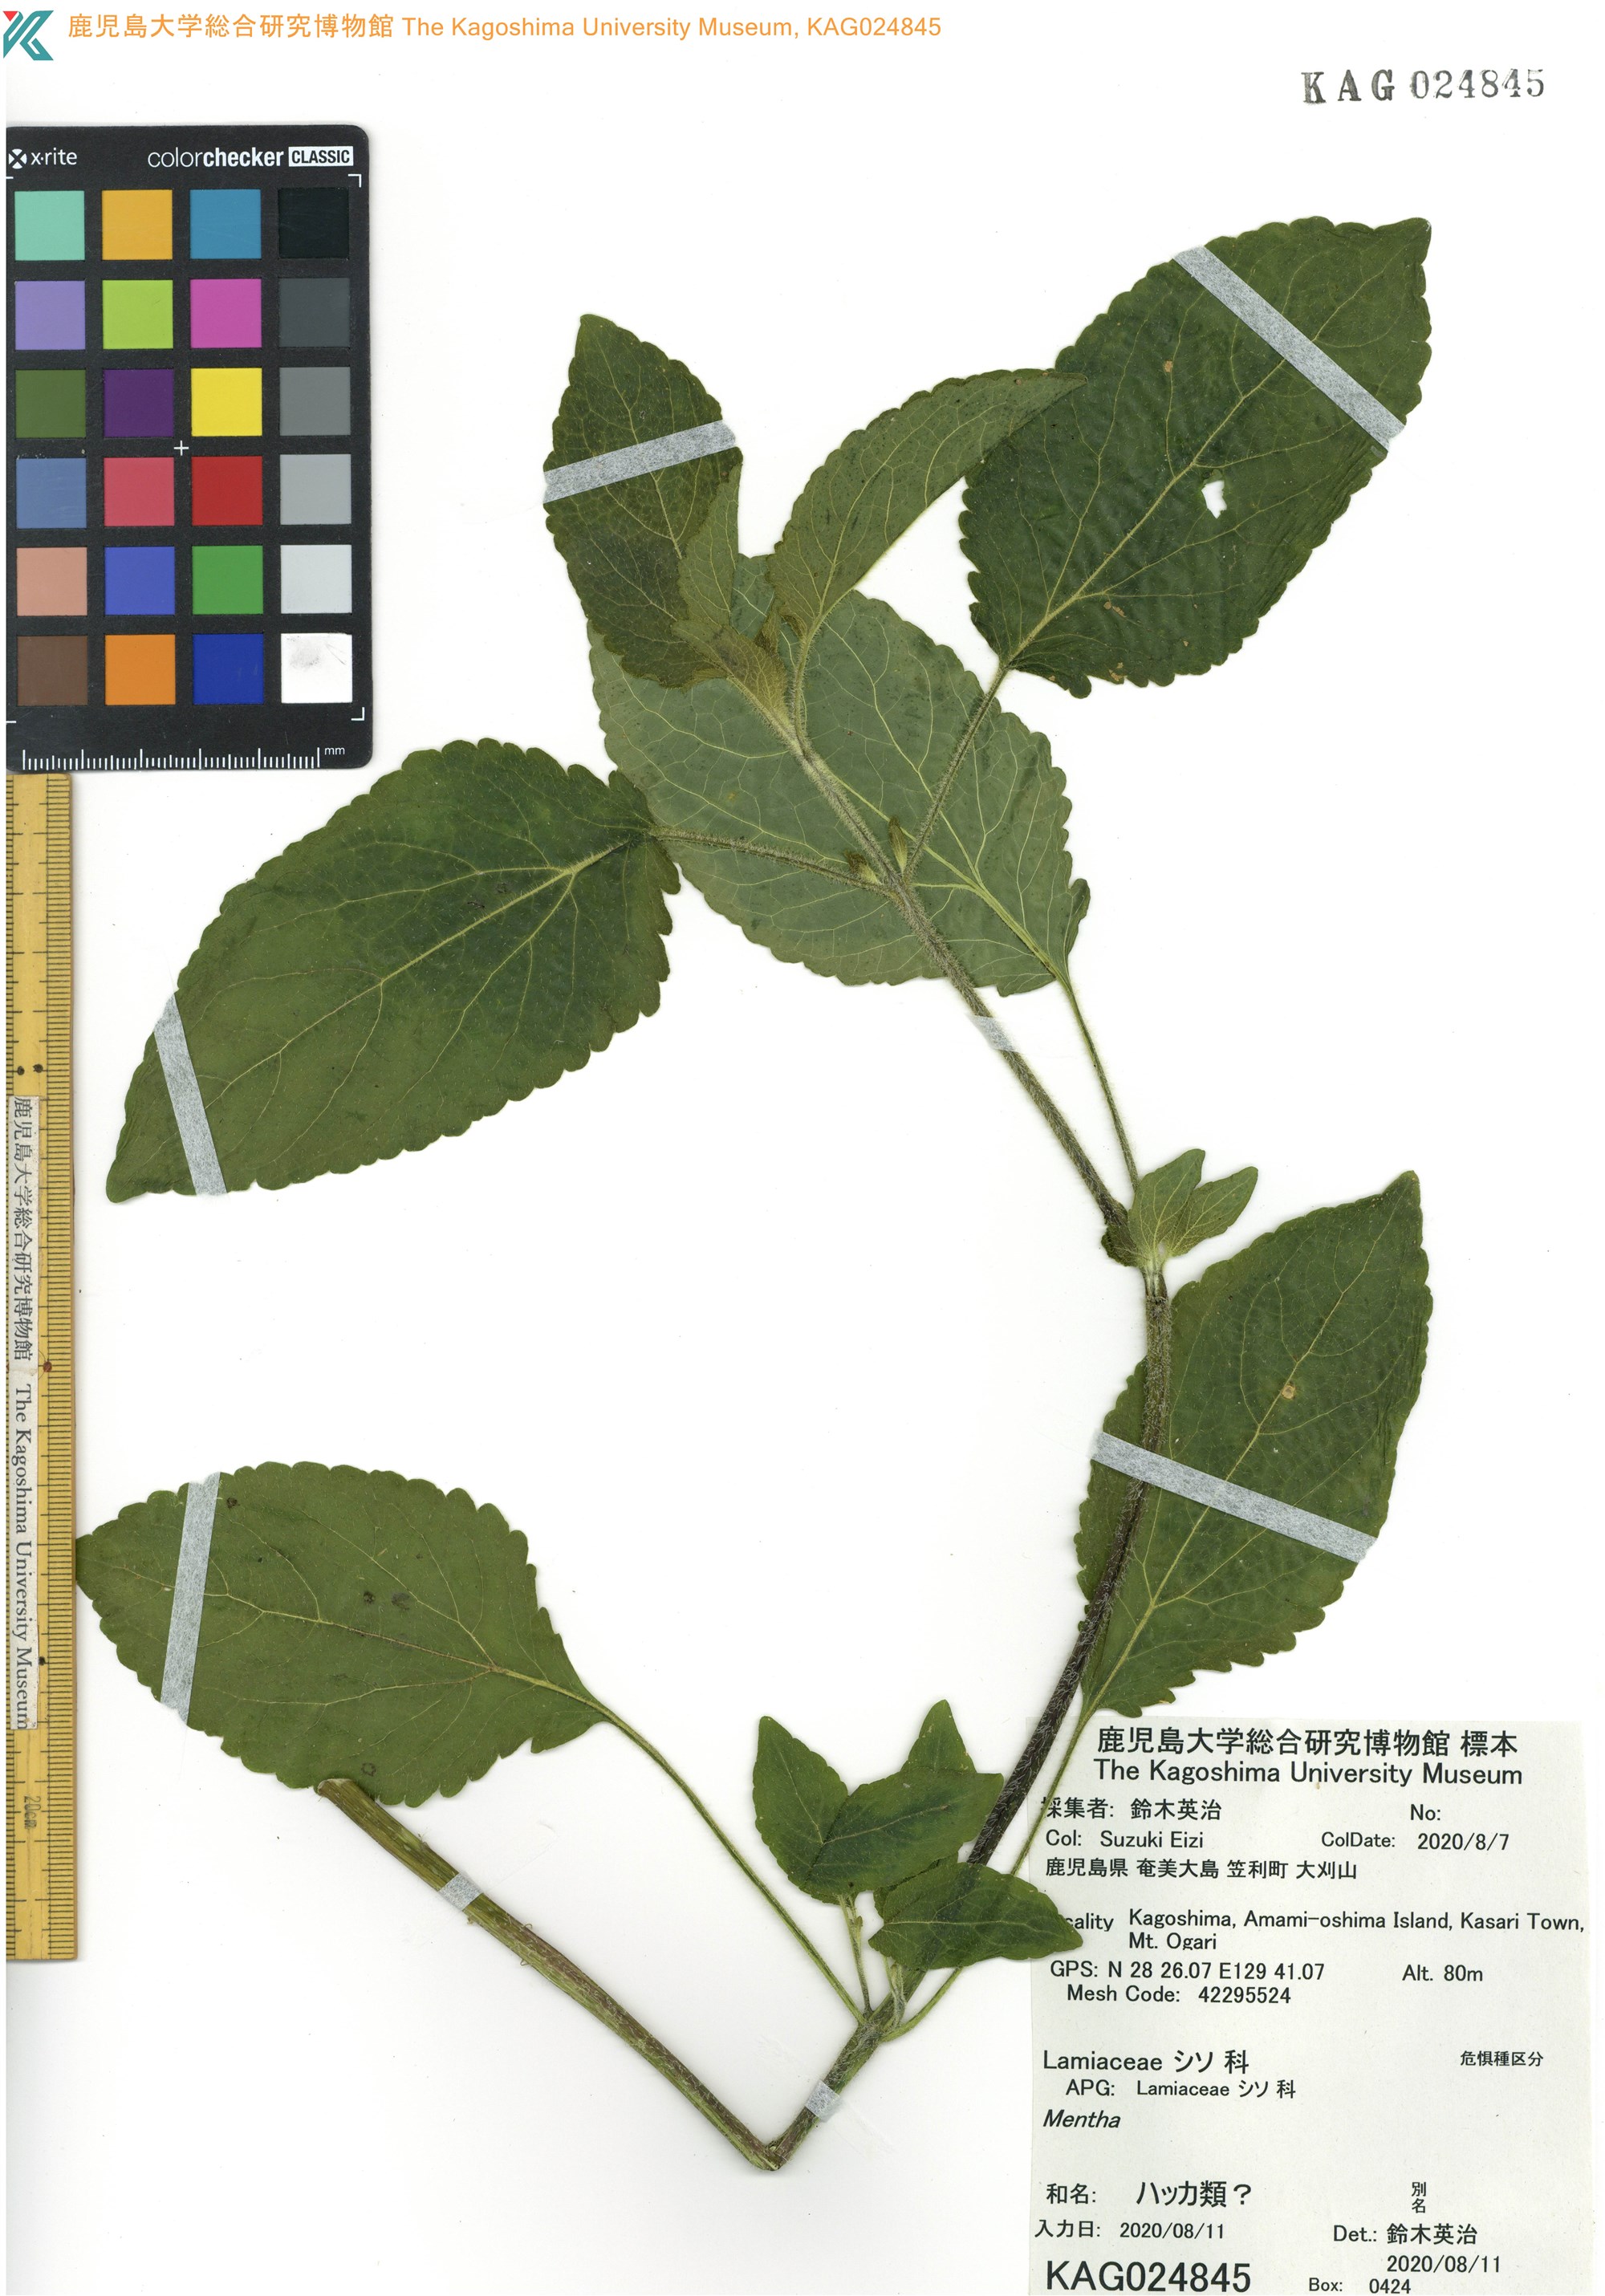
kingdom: Plantae
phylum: Tracheophyta
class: Magnoliopsida
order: Asterales
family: Asteraceae
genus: Ageratum
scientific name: Ageratum houstonianum
